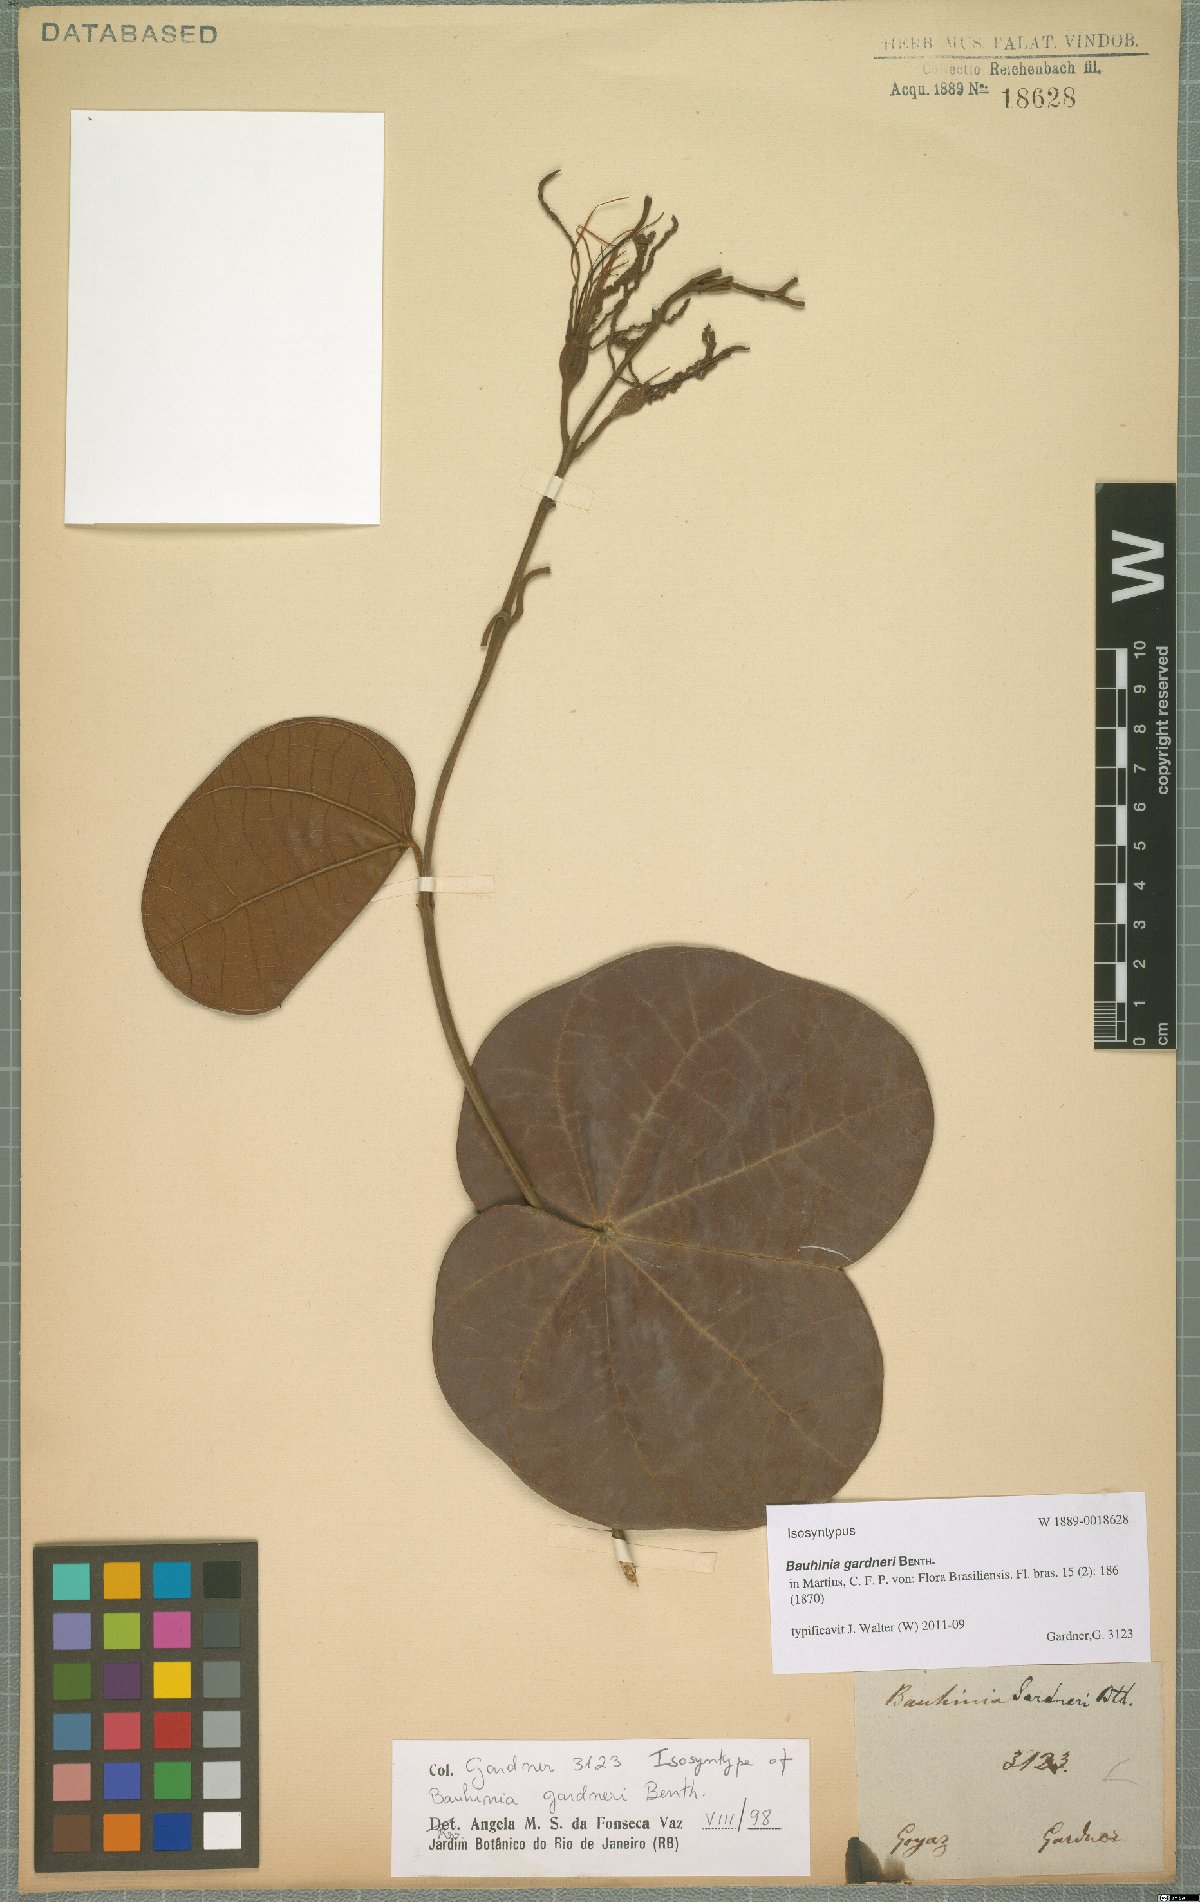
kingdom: Plantae
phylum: Tracheophyta
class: Magnoliopsida
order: Fabales
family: Fabaceae
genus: Bauhinia
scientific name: Bauhinia gardneri
